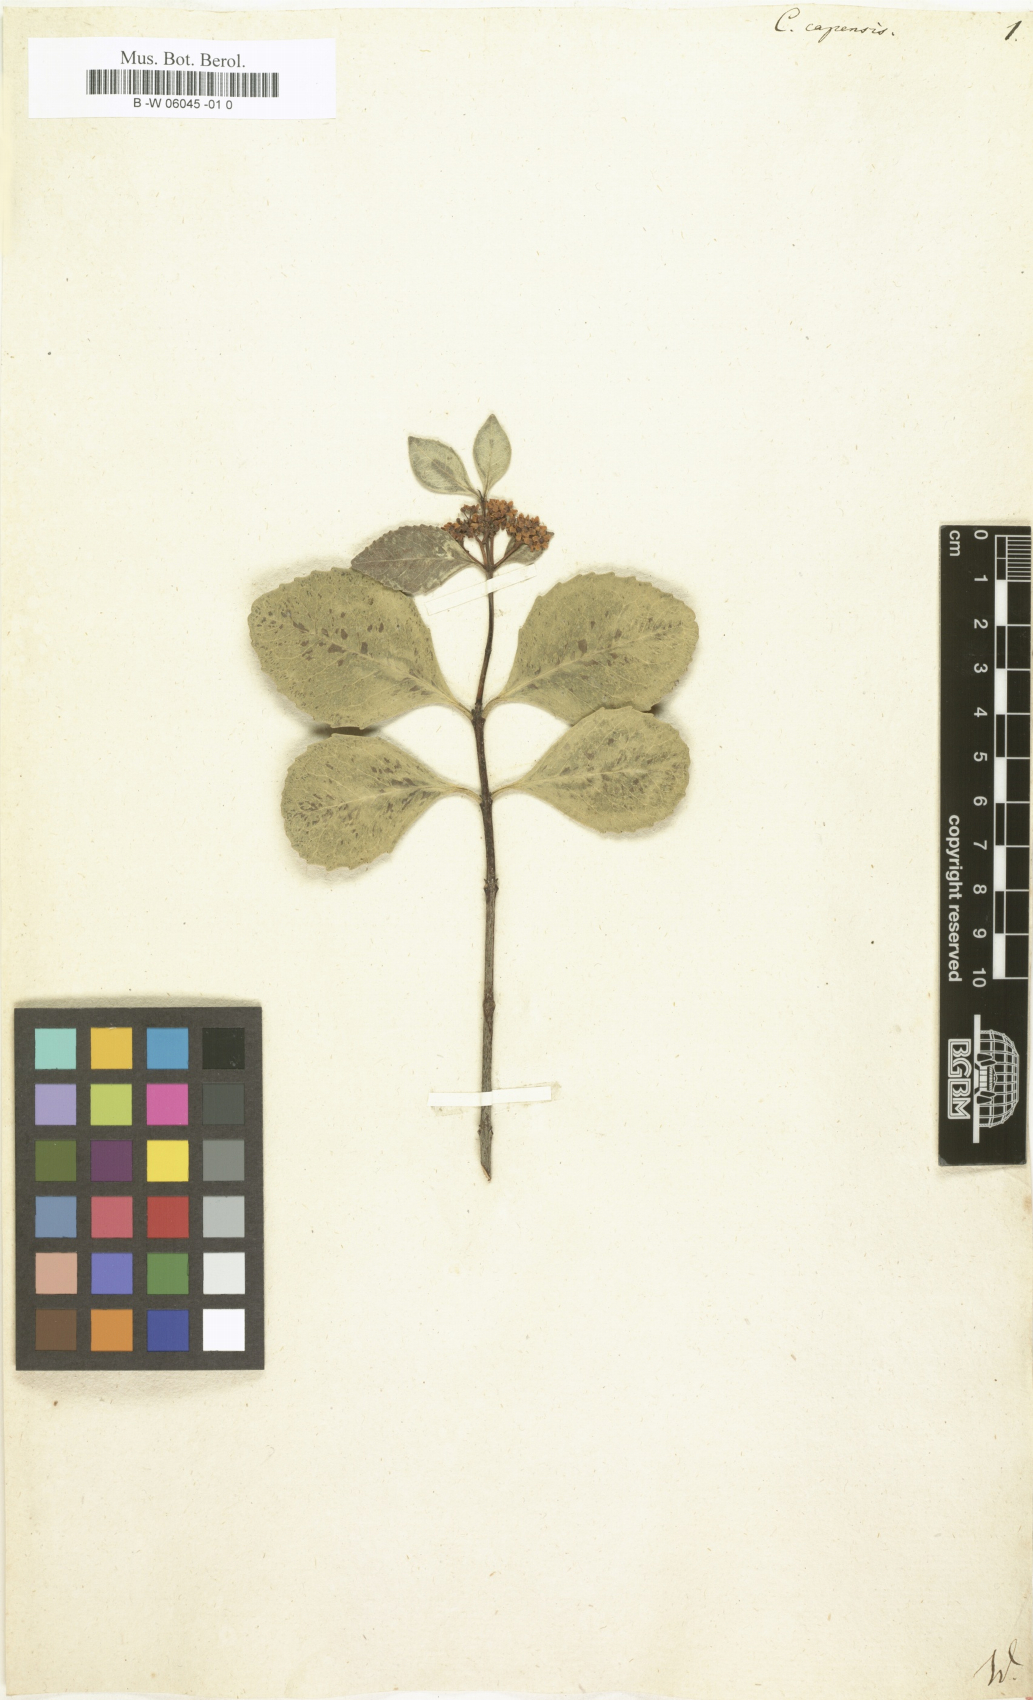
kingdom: Plantae
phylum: Tracheophyta
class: Magnoliopsida
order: Celastrales
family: Celastraceae
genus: Cassine
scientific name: Cassine peragua
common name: Cape saffron
